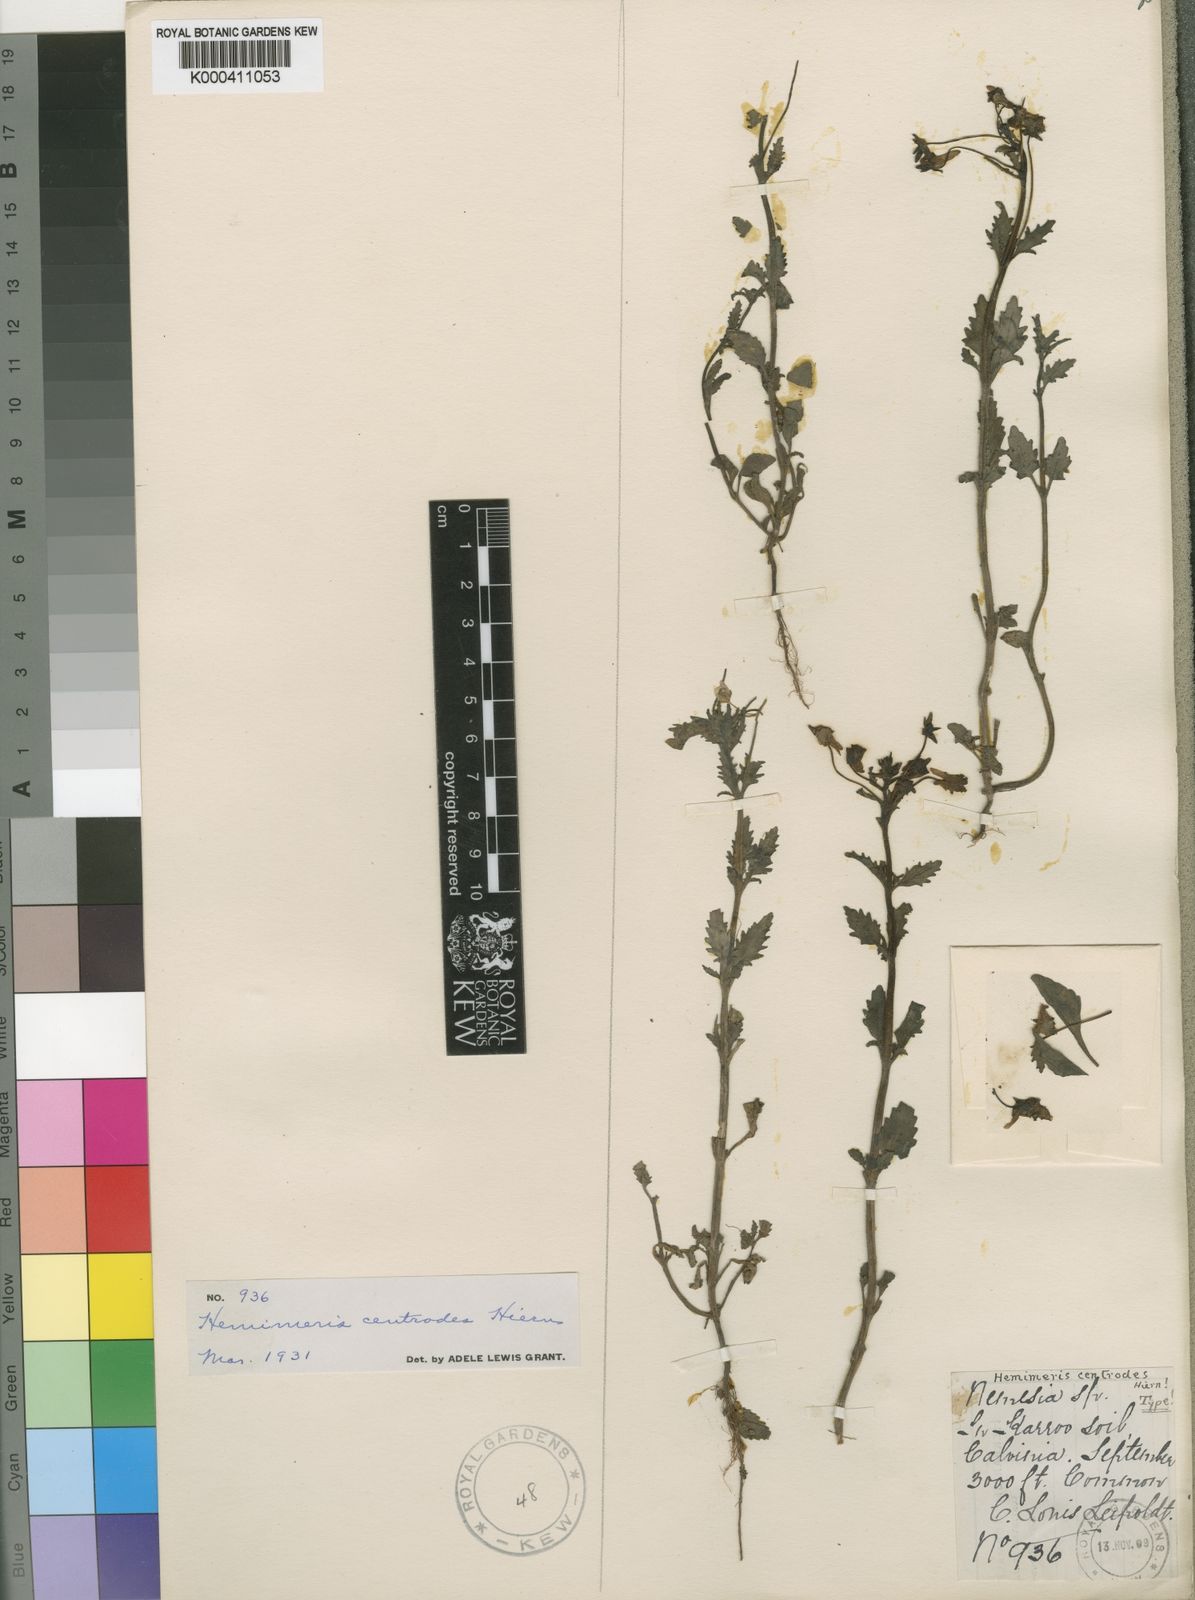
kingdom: Plantae
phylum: Tracheophyta
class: Magnoliopsida
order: Lamiales
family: Scrophulariaceae
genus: Hemimeris
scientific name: Hemimeris centrodes
